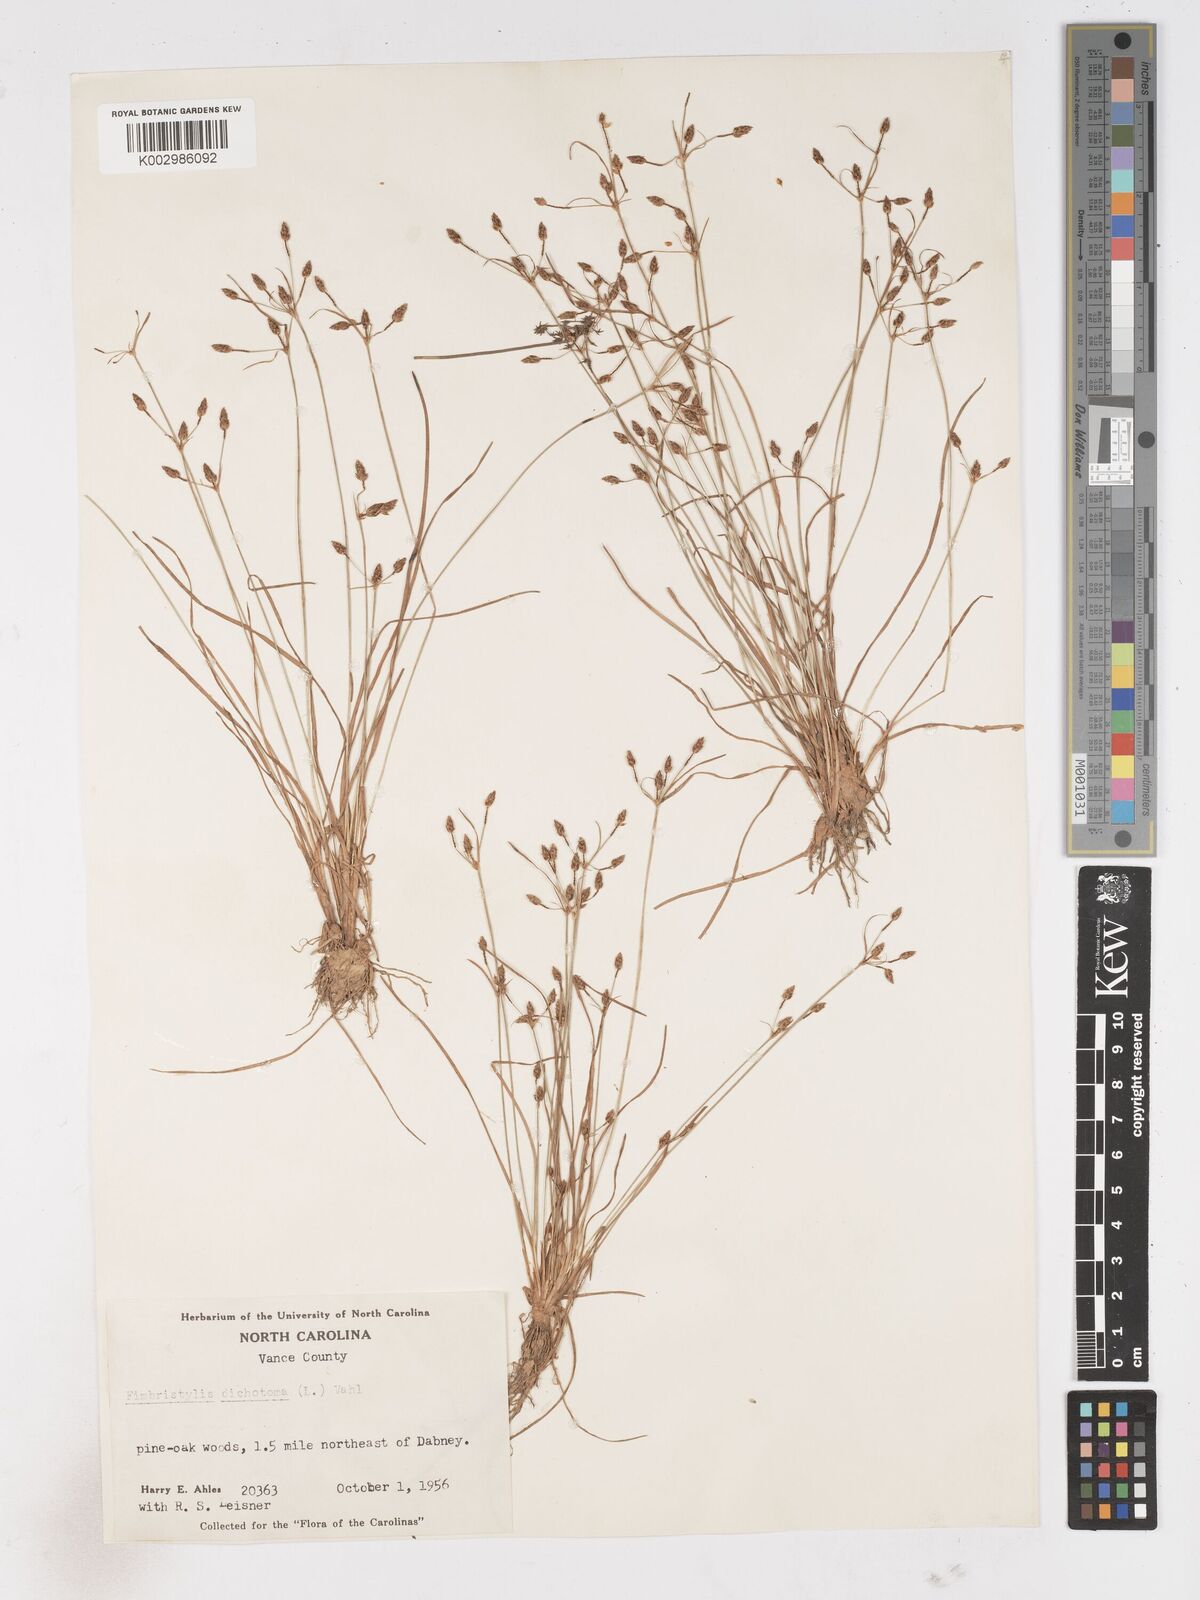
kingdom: Plantae
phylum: Tracheophyta
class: Liliopsida
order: Poales
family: Cyperaceae
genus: Fimbristylis
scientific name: Fimbristylis dichotoma
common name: Forked fimbry
